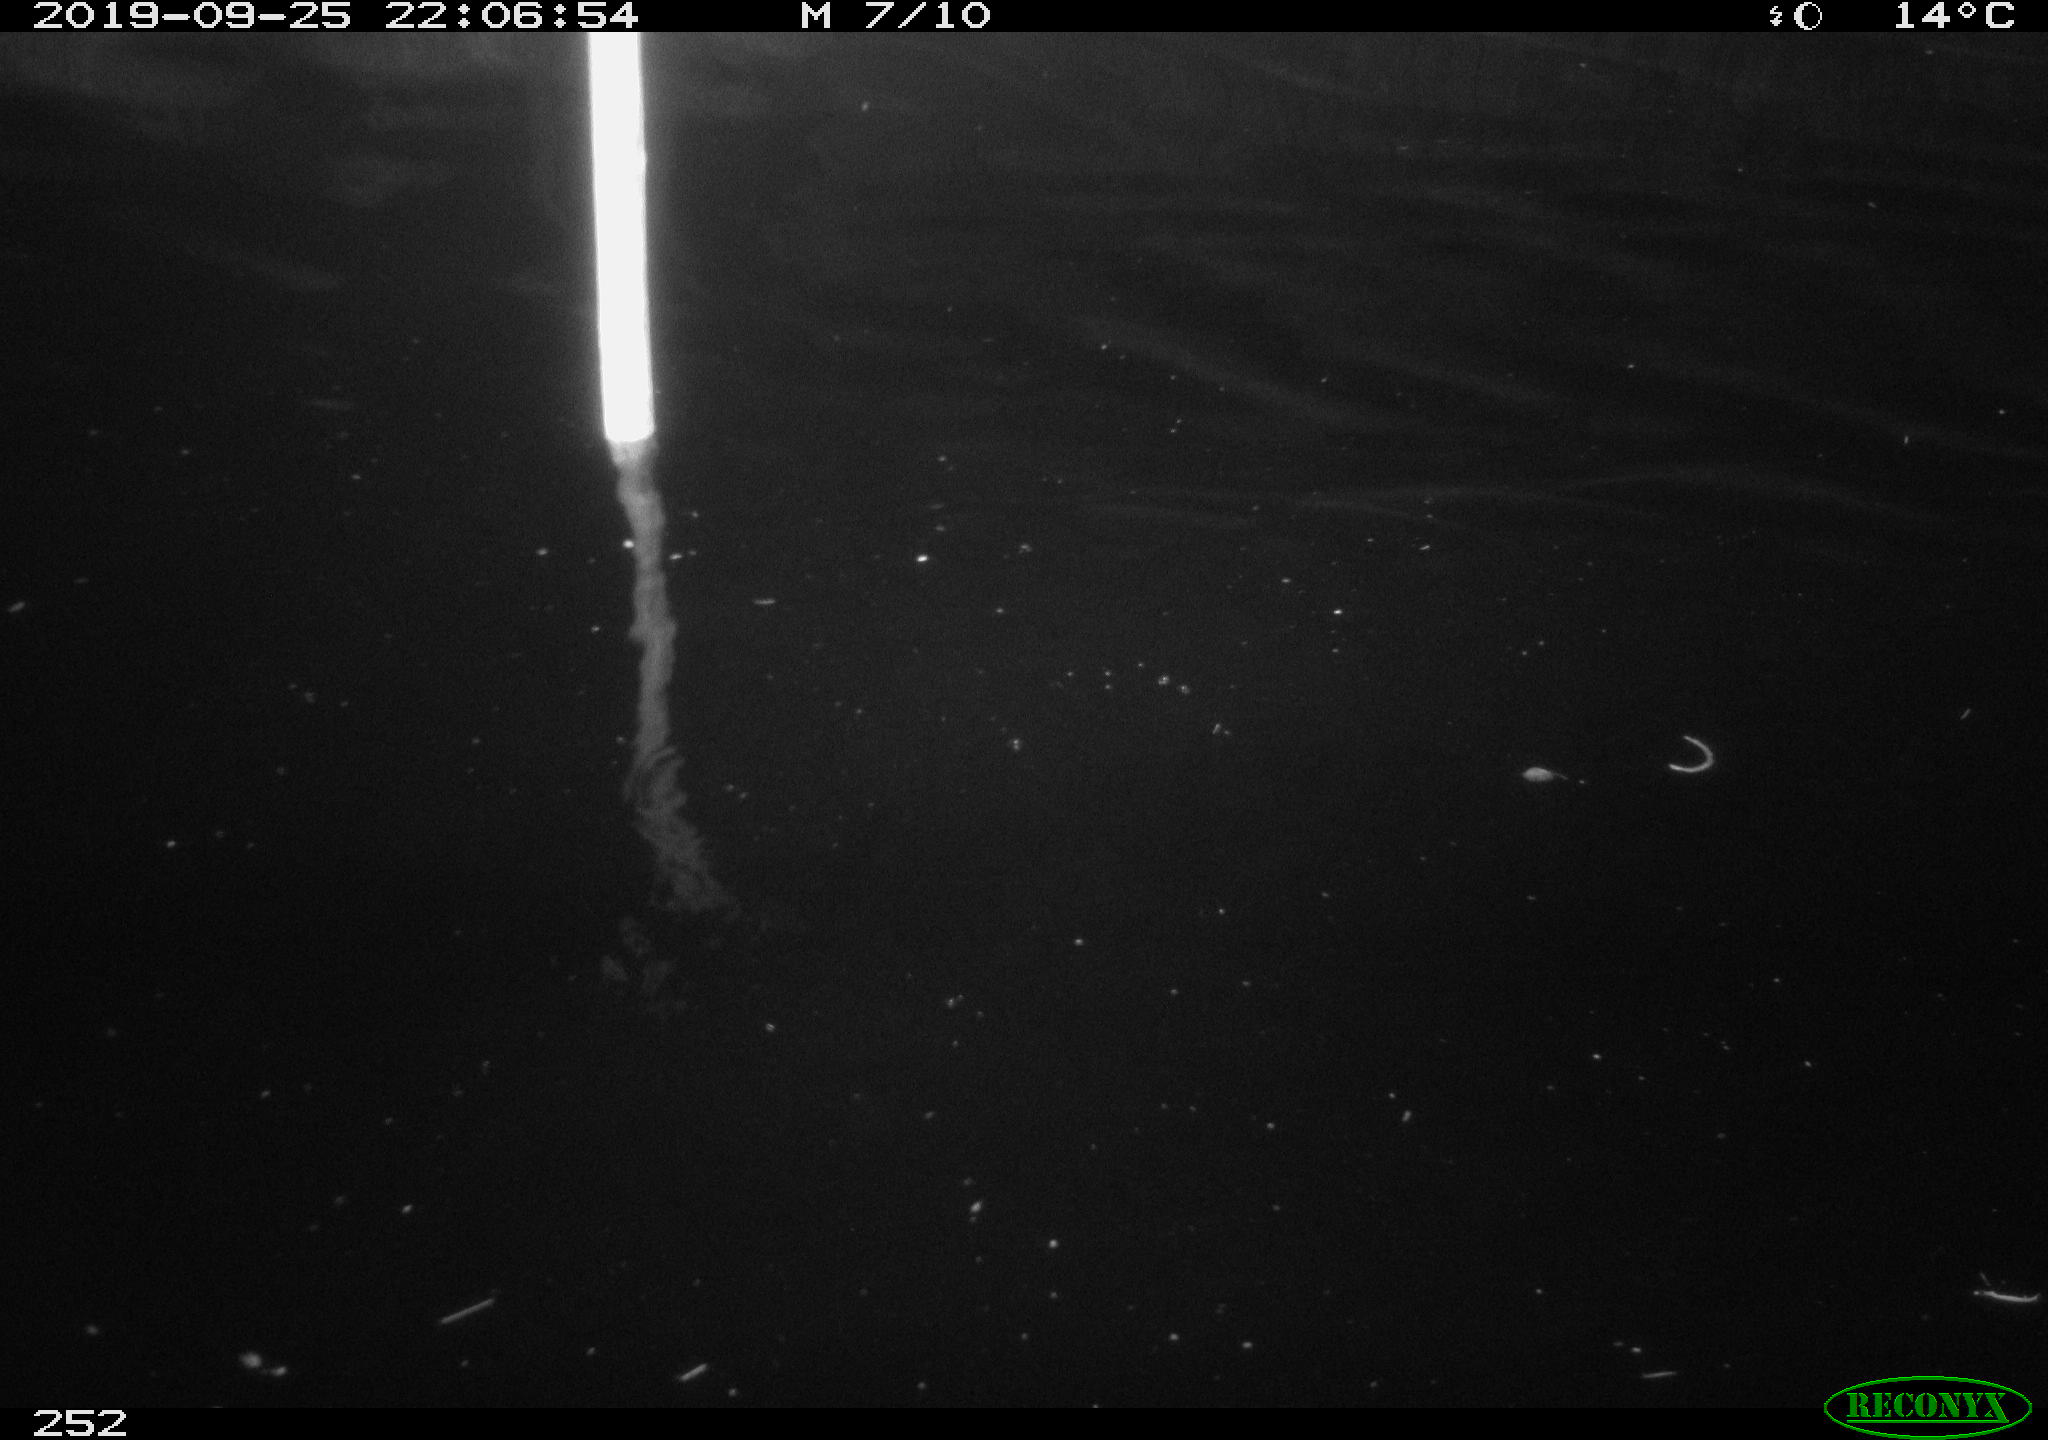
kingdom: Animalia
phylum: Chordata
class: Aves
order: Anseriformes
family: Anatidae
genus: Anas
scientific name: Anas platyrhynchos
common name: Mallard
